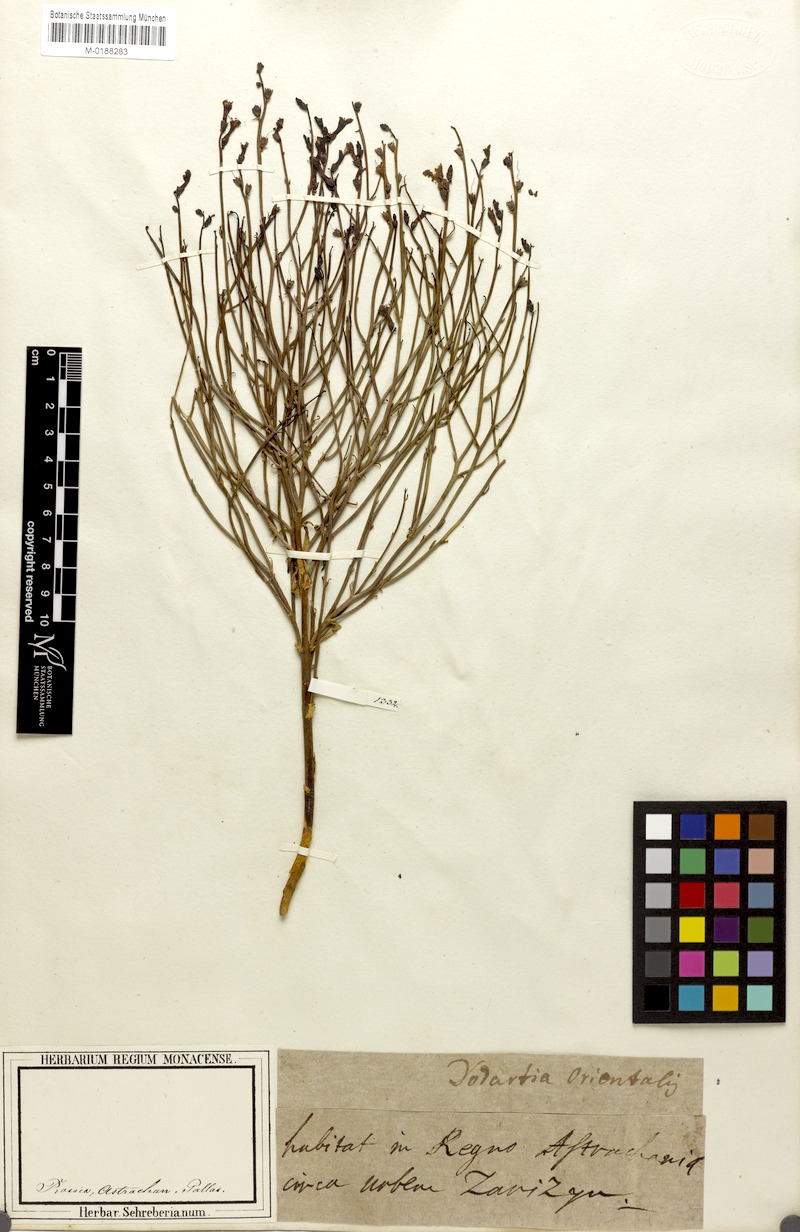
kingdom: Plantae
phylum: Tracheophyta
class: Magnoliopsida
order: Lamiales
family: Mazaceae
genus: Dodartia
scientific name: Dodartia orientalis
